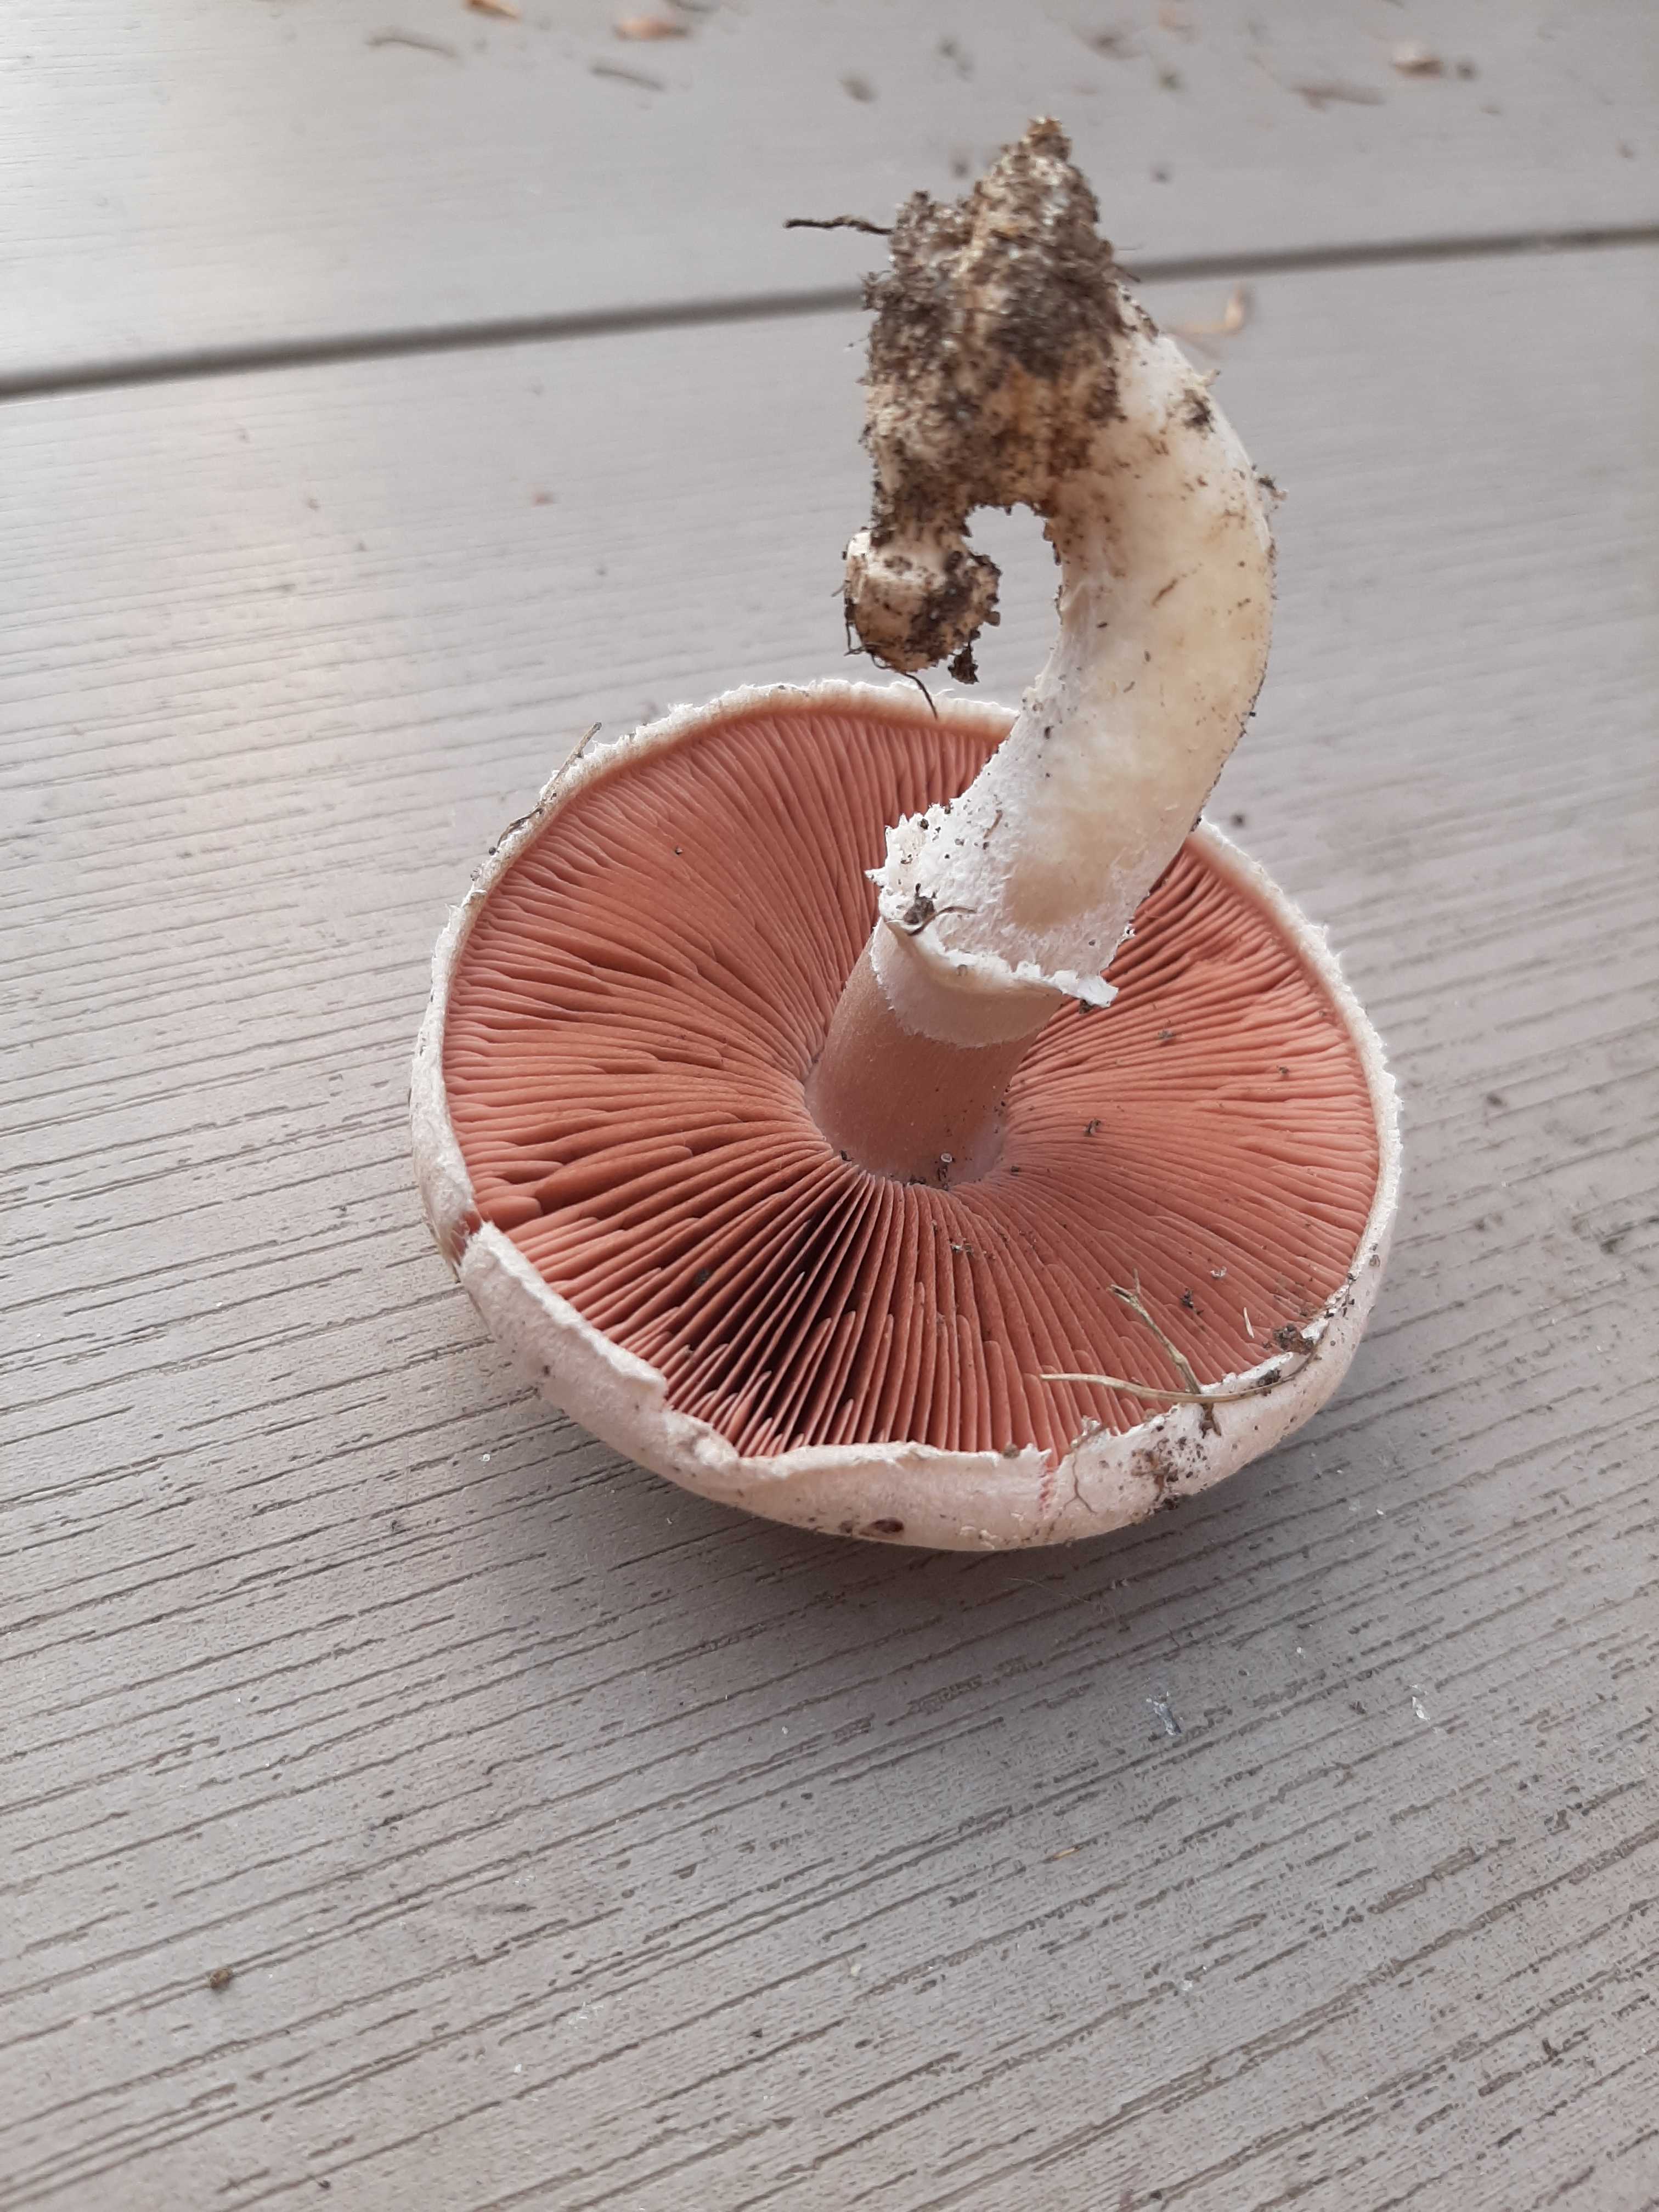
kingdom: Fungi
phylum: Basidiomycota
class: Agaricomycetes
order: Agaricales
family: Agaricaceae
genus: Agaricus
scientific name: Agaricus campestris
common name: mark-champignon
